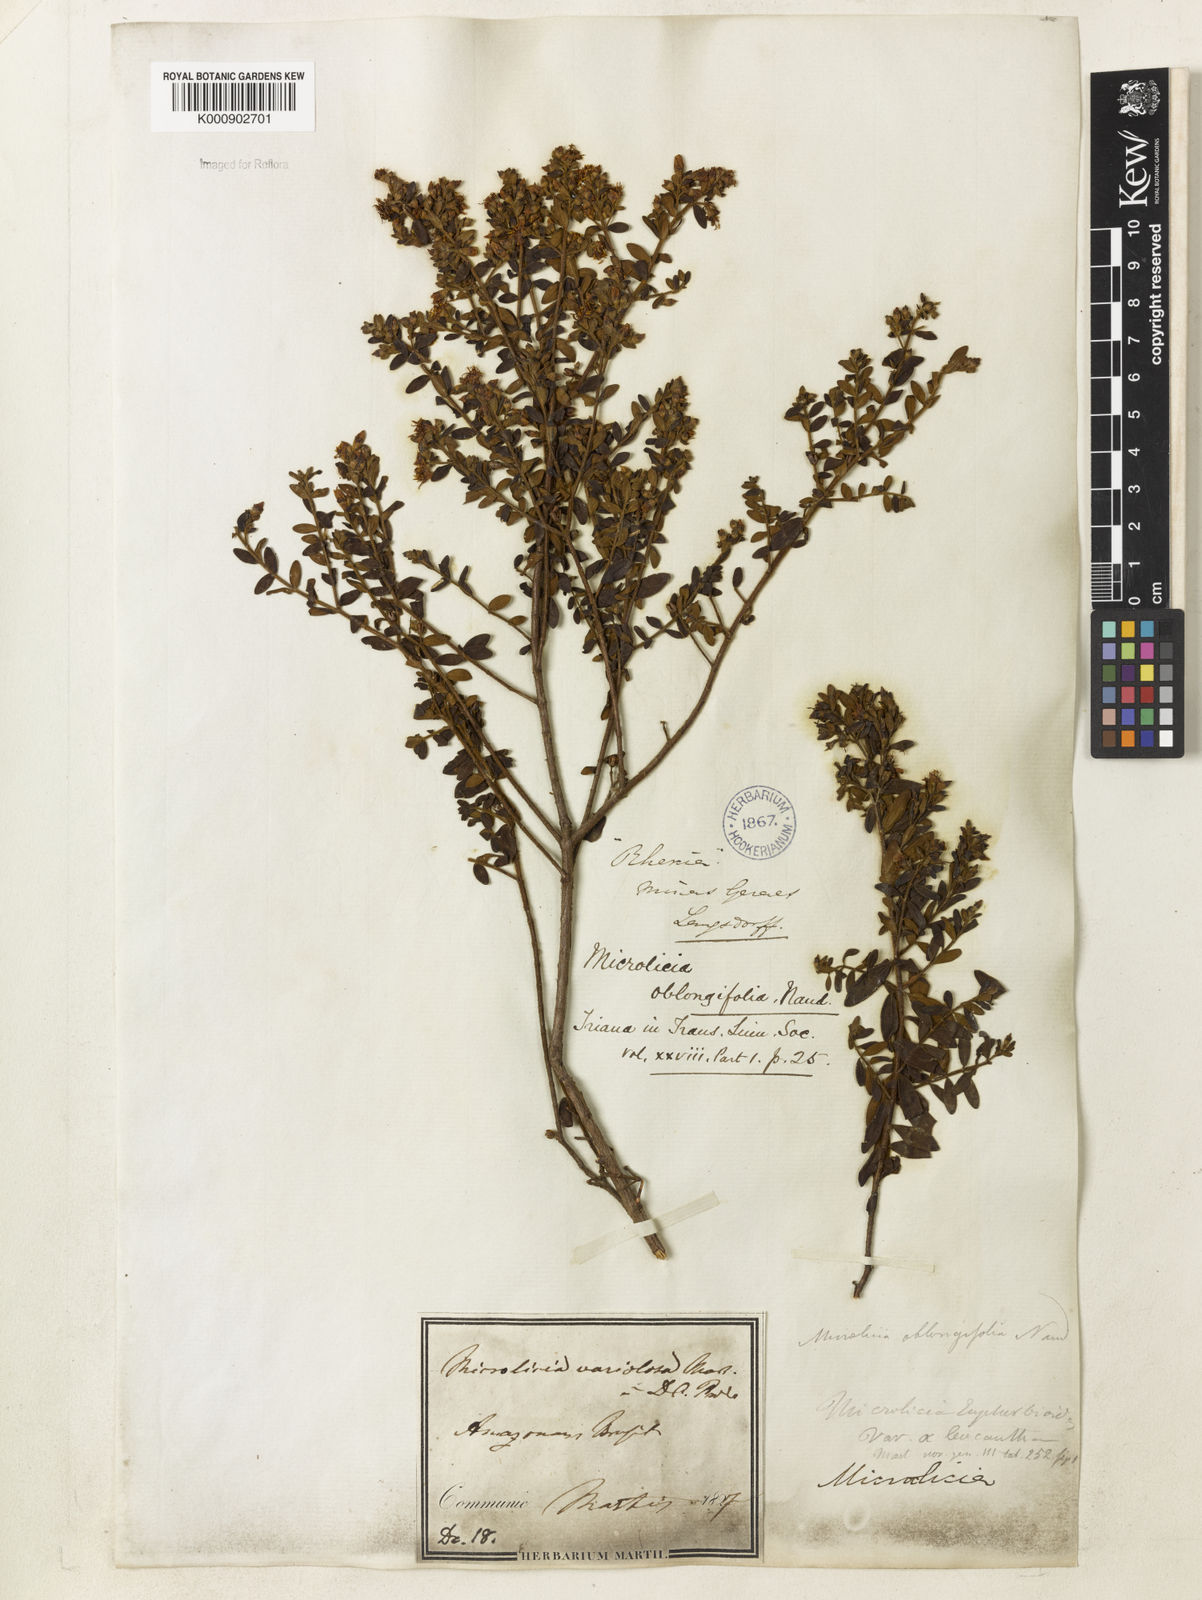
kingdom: Plantae
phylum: Tracheophyta
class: Magnoliopsida
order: Myrtales
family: Melastomataceae
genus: Microlicia
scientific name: Microlicia euphorbioides
